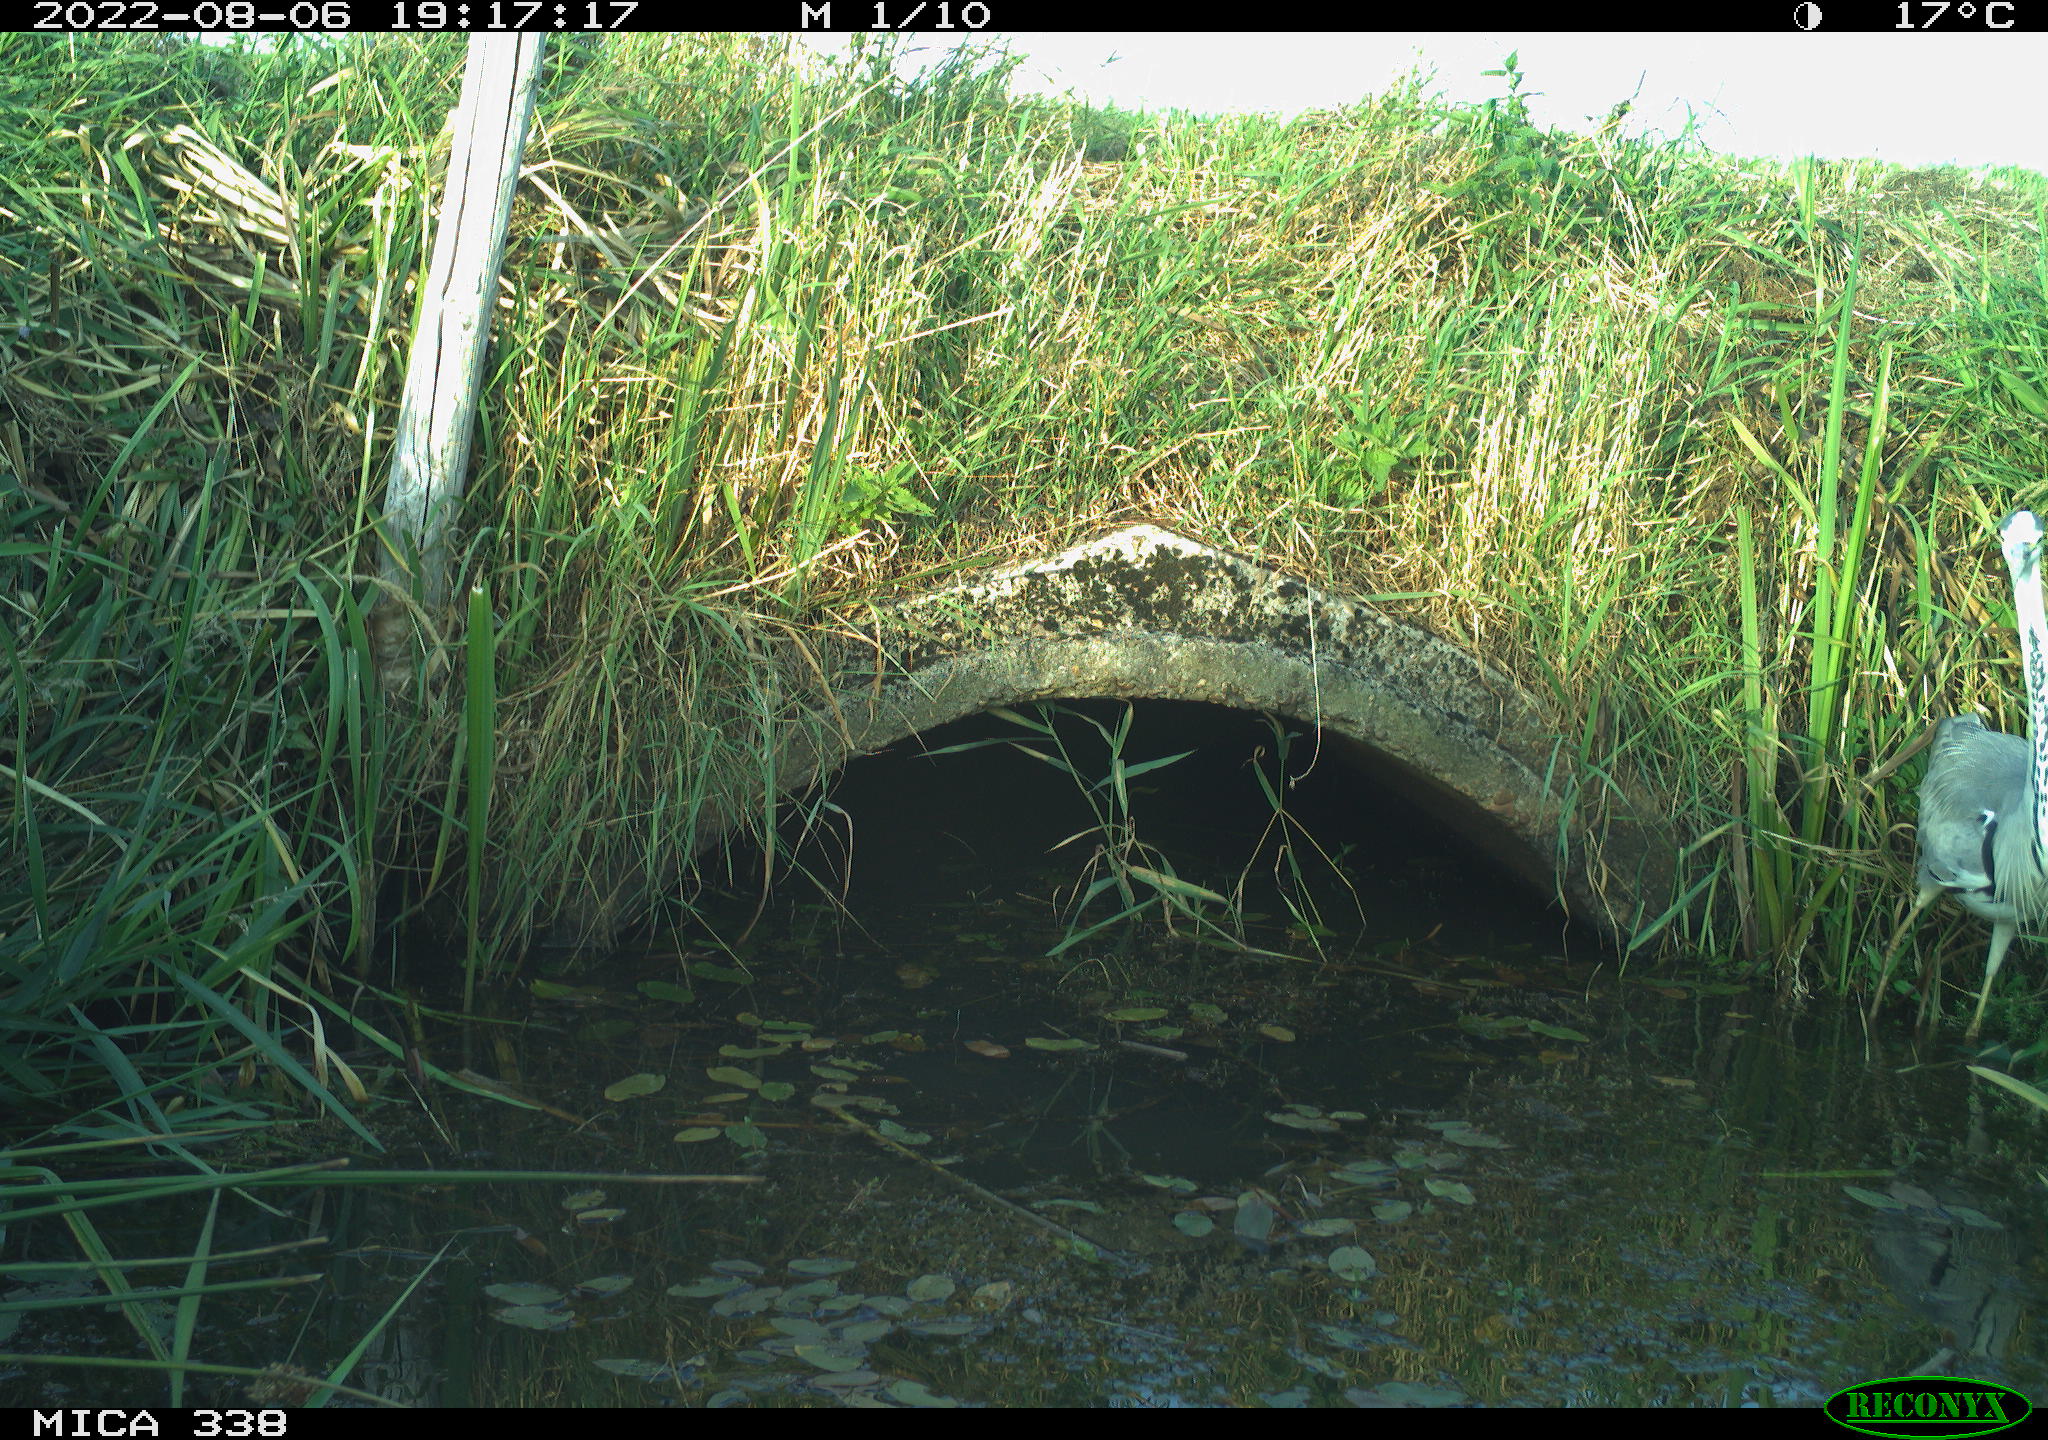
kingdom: Animalia
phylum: Chordata
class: Aves
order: Pelecaniformes
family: Ardeidae
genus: Ardea
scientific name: Ardea cinerea
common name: Grey heron
